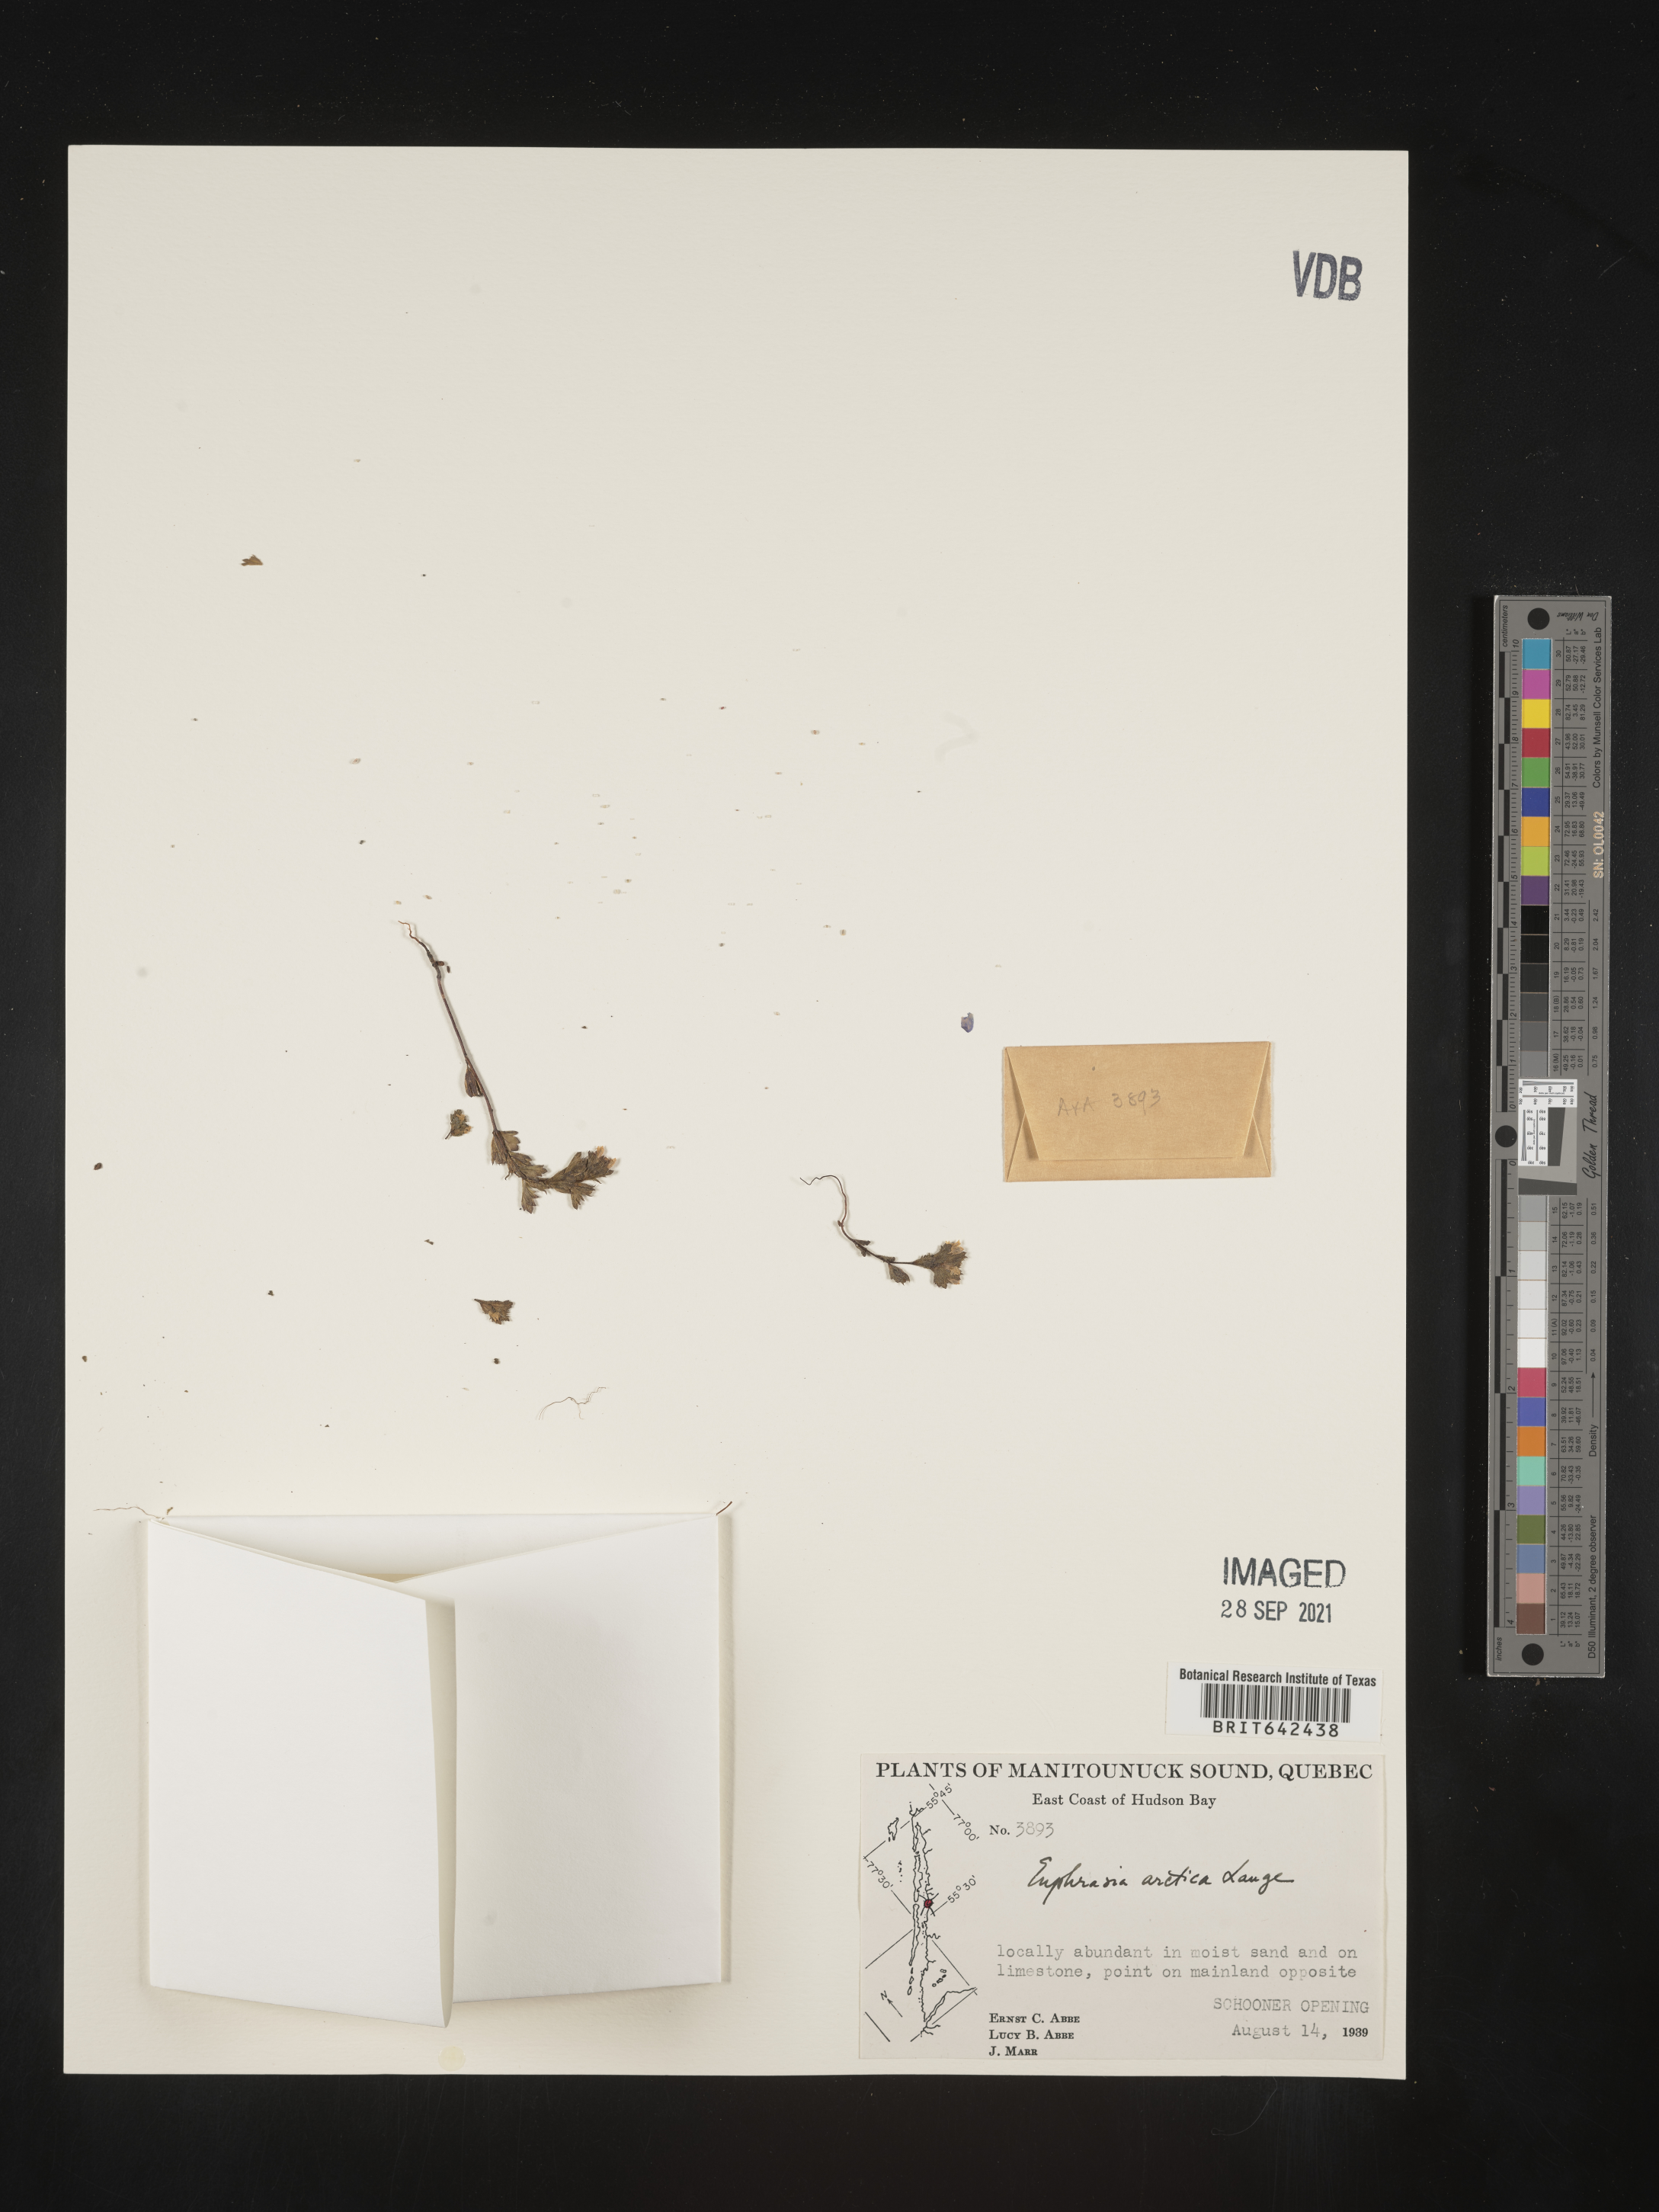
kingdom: Plantae
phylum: Tracheophyta
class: Magnoliopsida
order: Lamiales
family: Orobanchaceae
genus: Euphrasia
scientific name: Euphrasia
